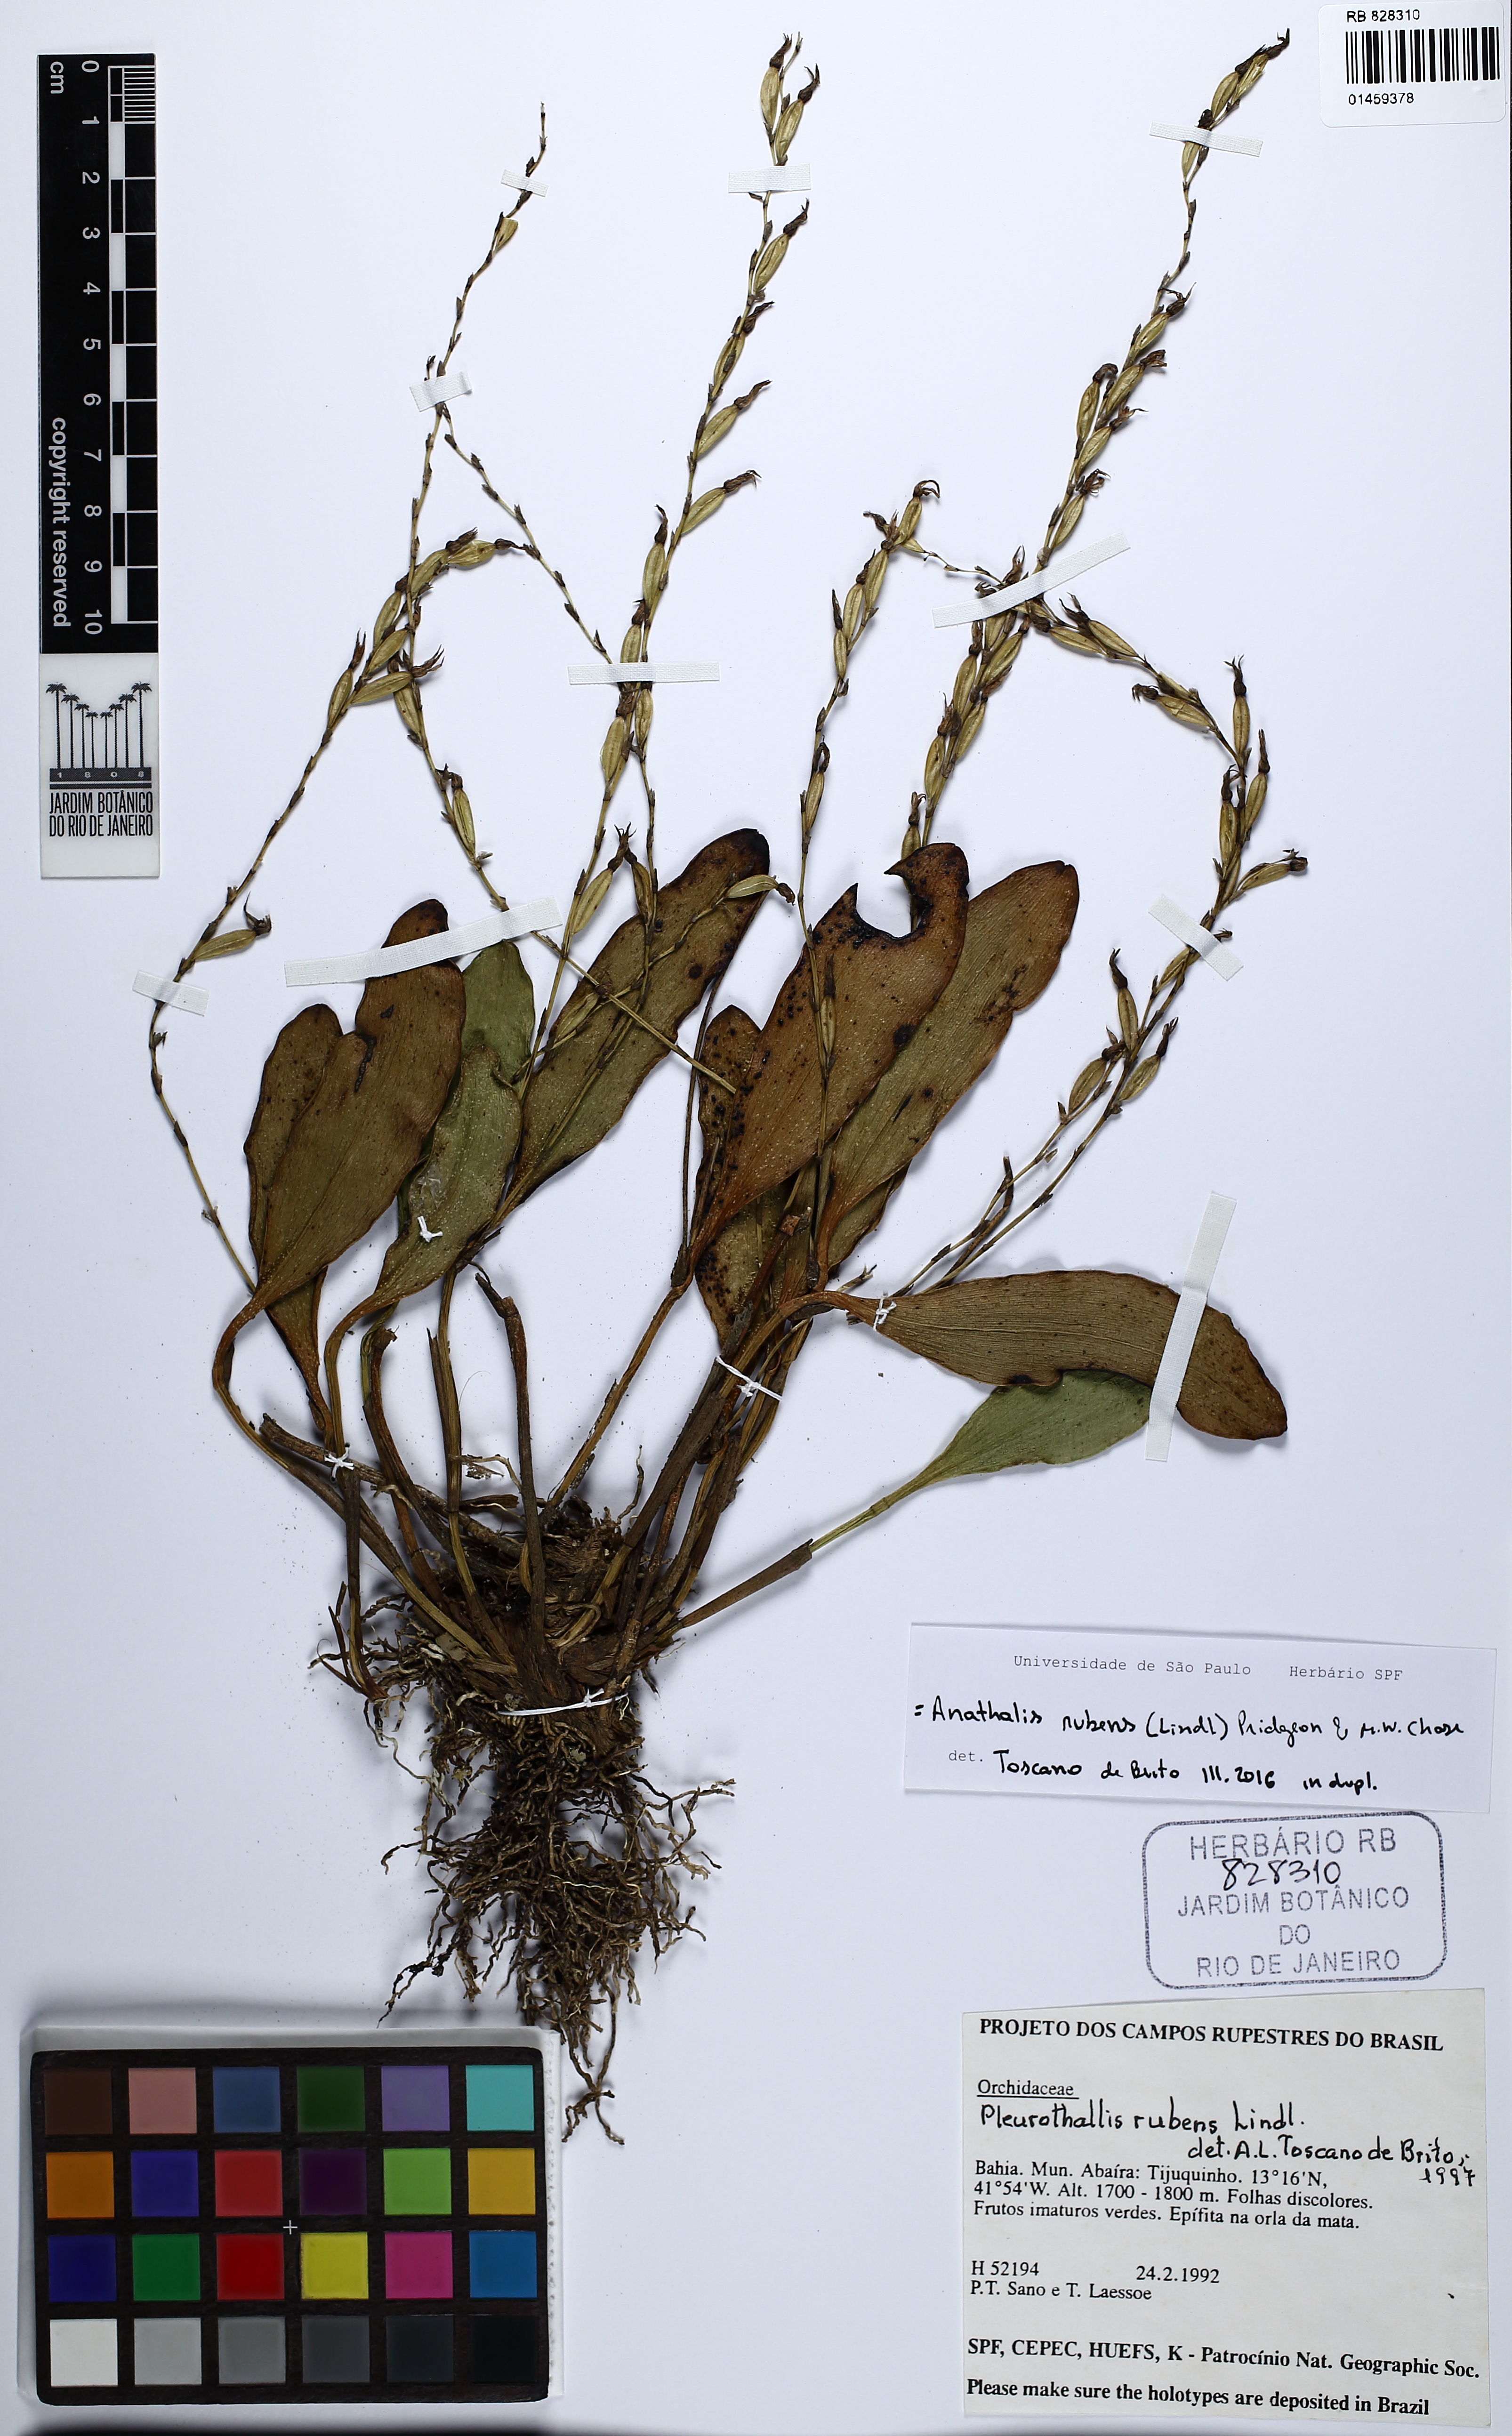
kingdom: Plantae
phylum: Tracheophyta
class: Liliopsida
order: Asparagales
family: Orchidaceae
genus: Stelis
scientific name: Stelis montserratii
